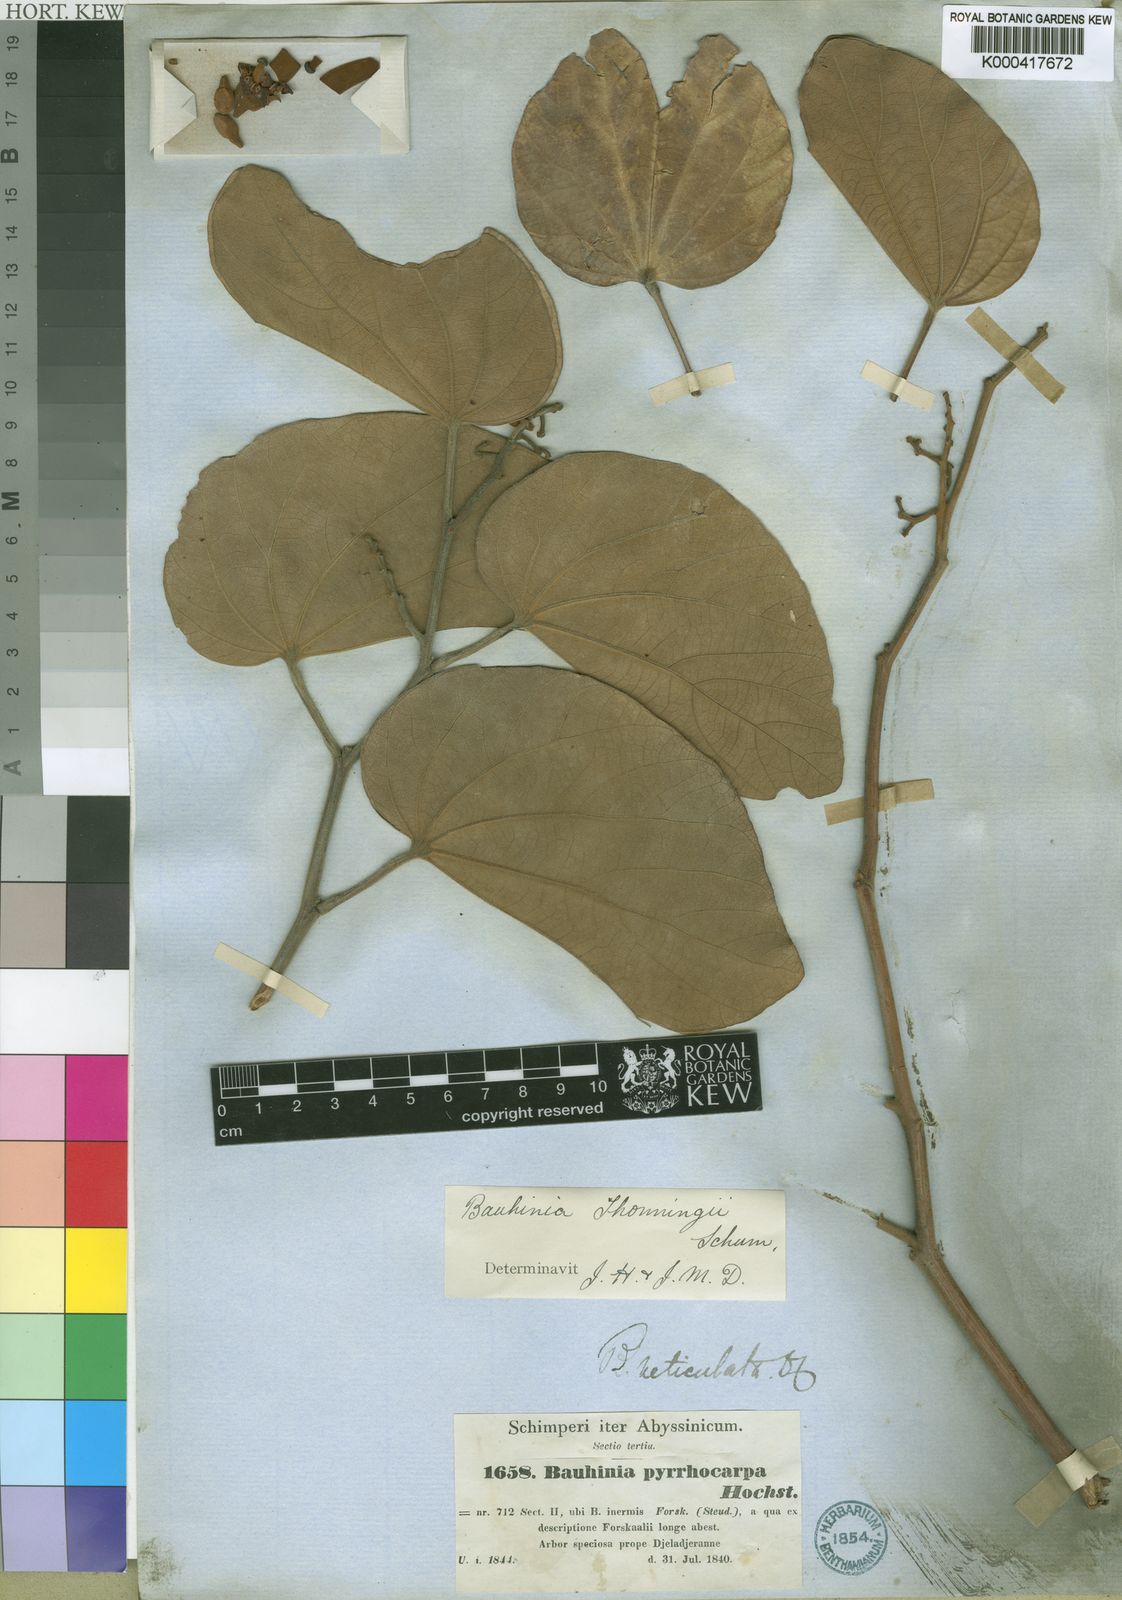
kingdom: Plantae
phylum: Tracheophyta
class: Magnoliopsida
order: Fabales
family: Fabaceae
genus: Piliostigma
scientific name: Piliostigma thonningii
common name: Kao
